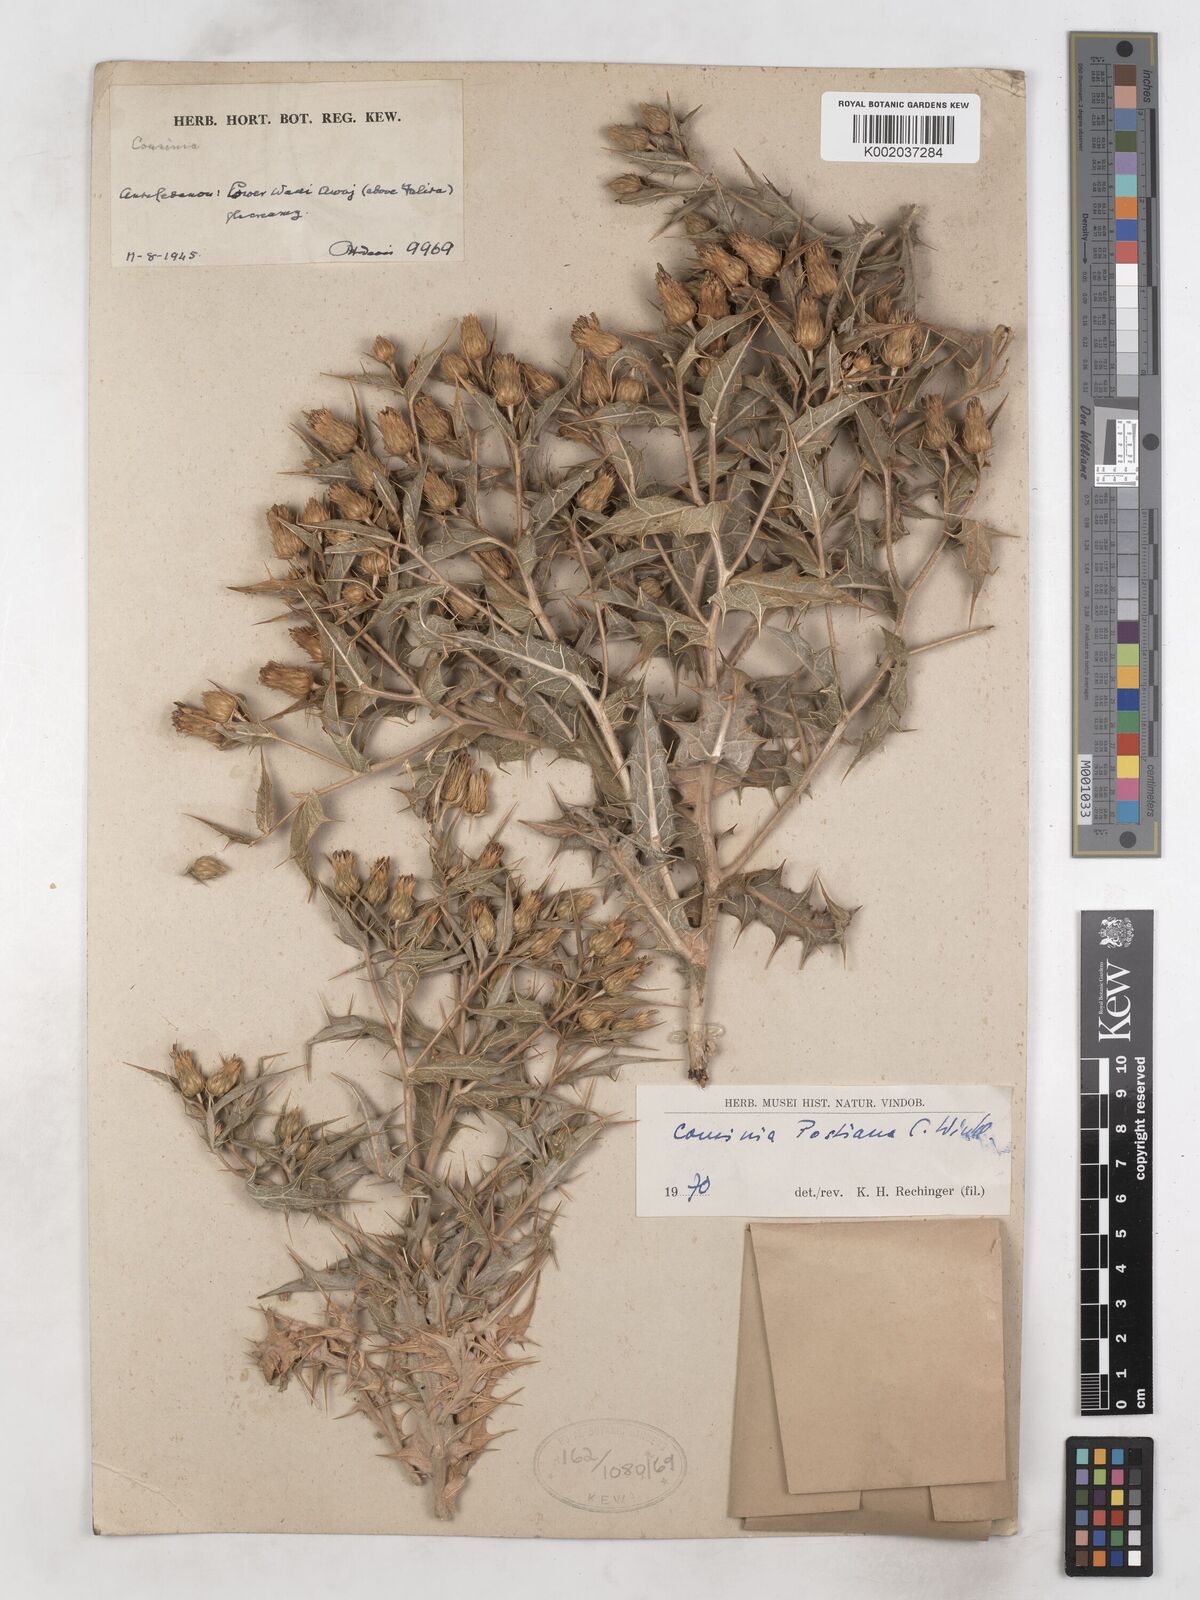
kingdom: Plantae
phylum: Tracheophyta
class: Magnoliopsida
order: Asterales
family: Asteraceae
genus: Cousinia
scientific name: Cousinia postiana
